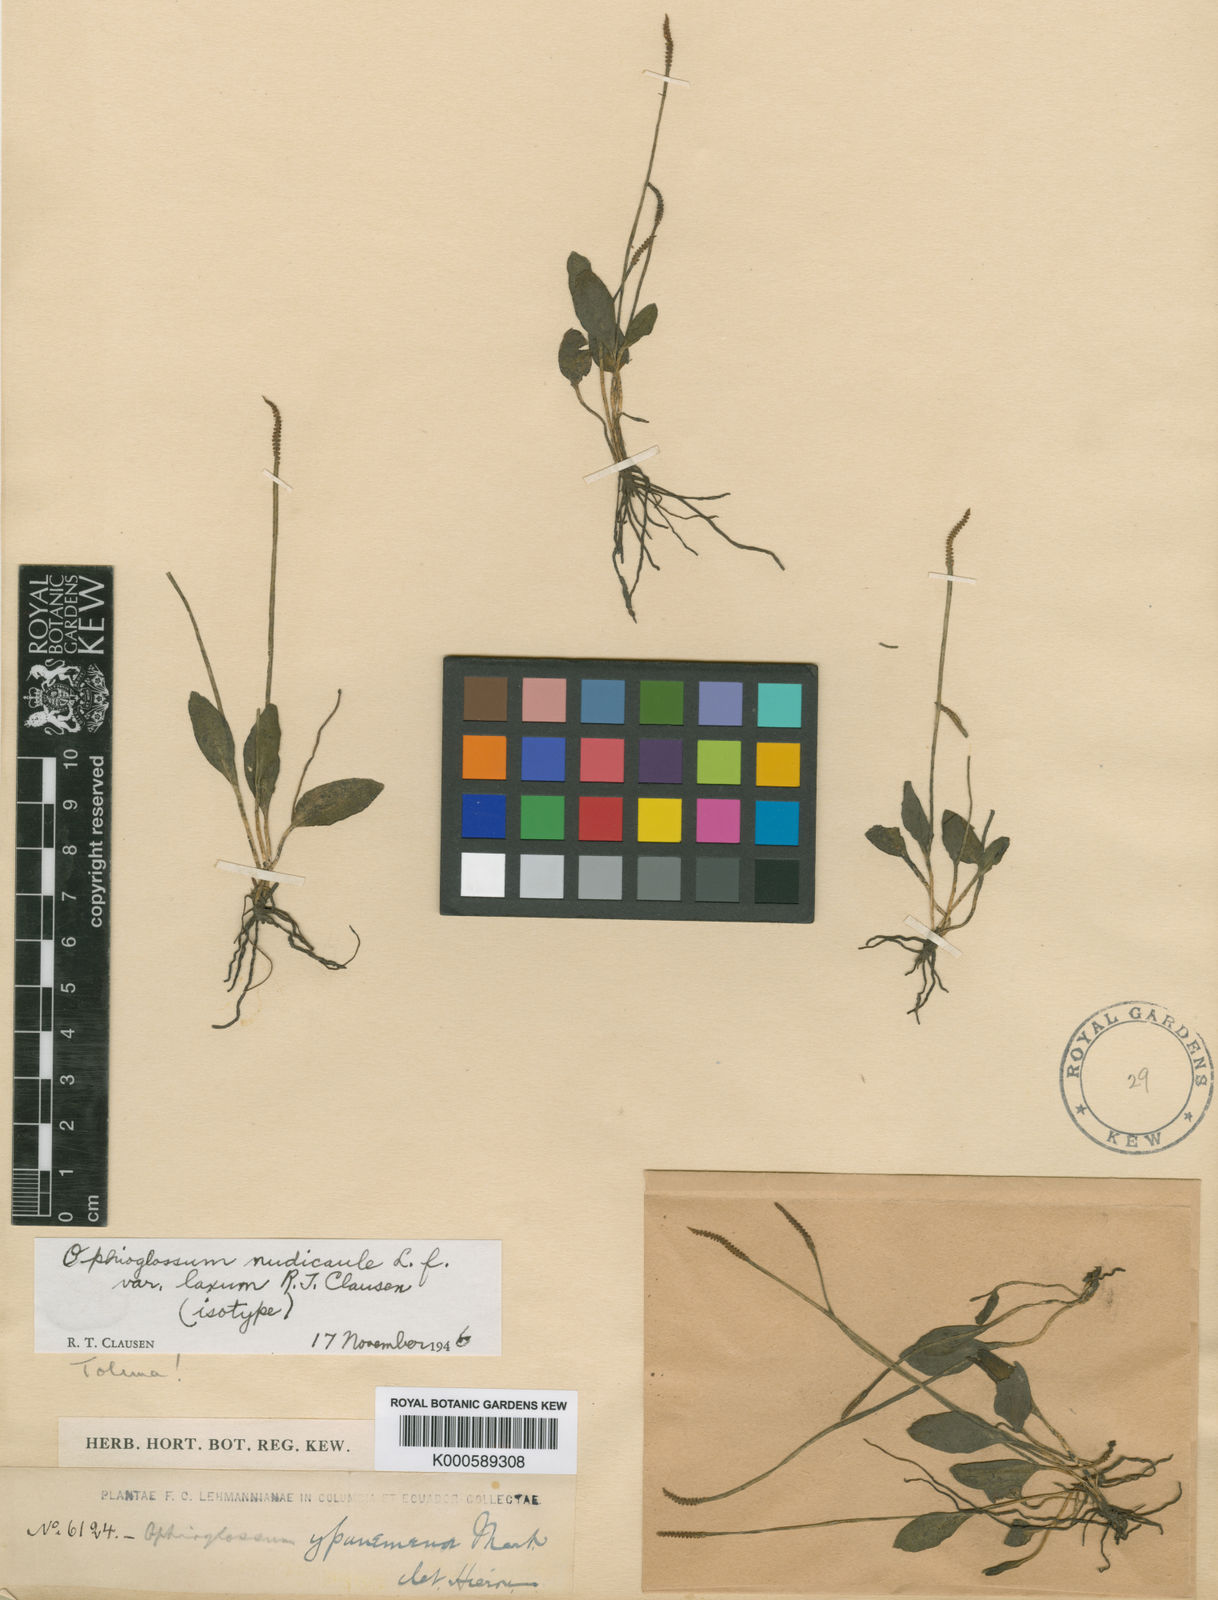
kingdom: Plantae
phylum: Tracheophyta
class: Polypodiopsida
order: Ophioglossales
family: Ophioglossaceae
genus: Ophioglossum
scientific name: Ophioglossum nudicaule
